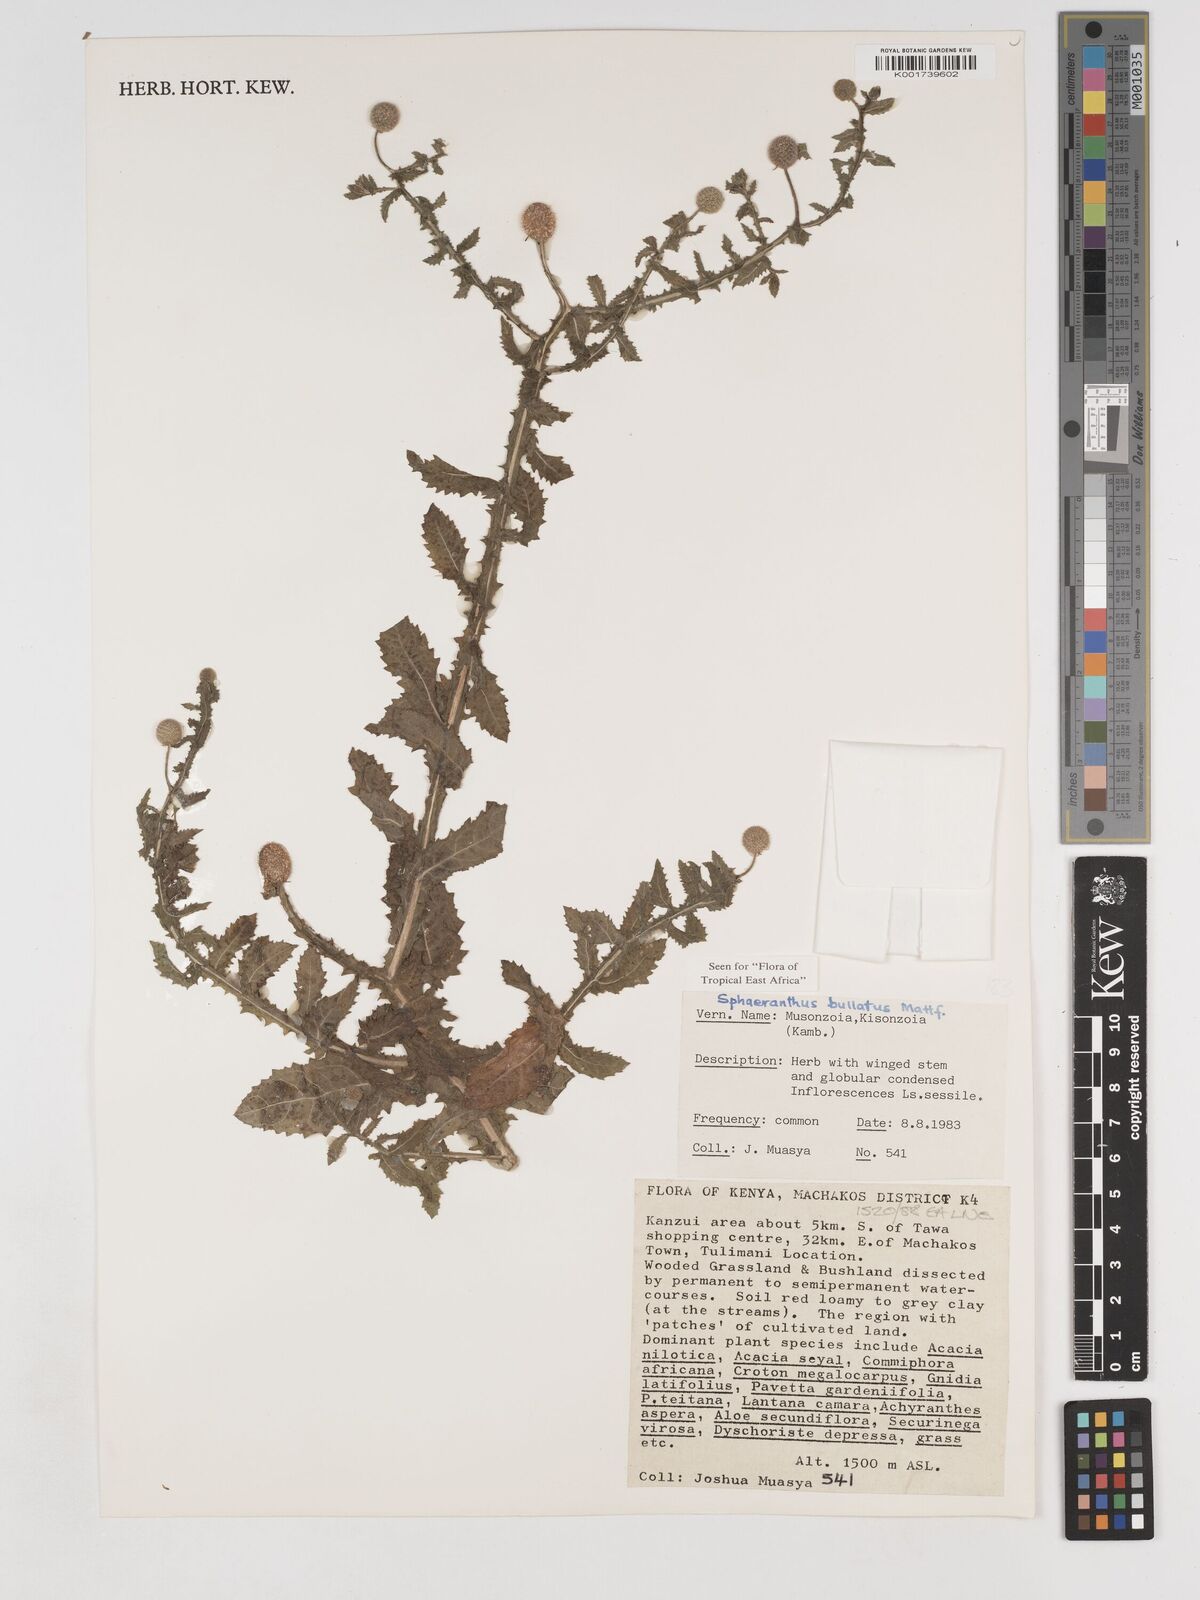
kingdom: Plantae
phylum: Tracheophyta
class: Magnoliopsida
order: Asterales
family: Asteraceae
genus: Sphaeranthus
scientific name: Sphaeranthus bullatus
